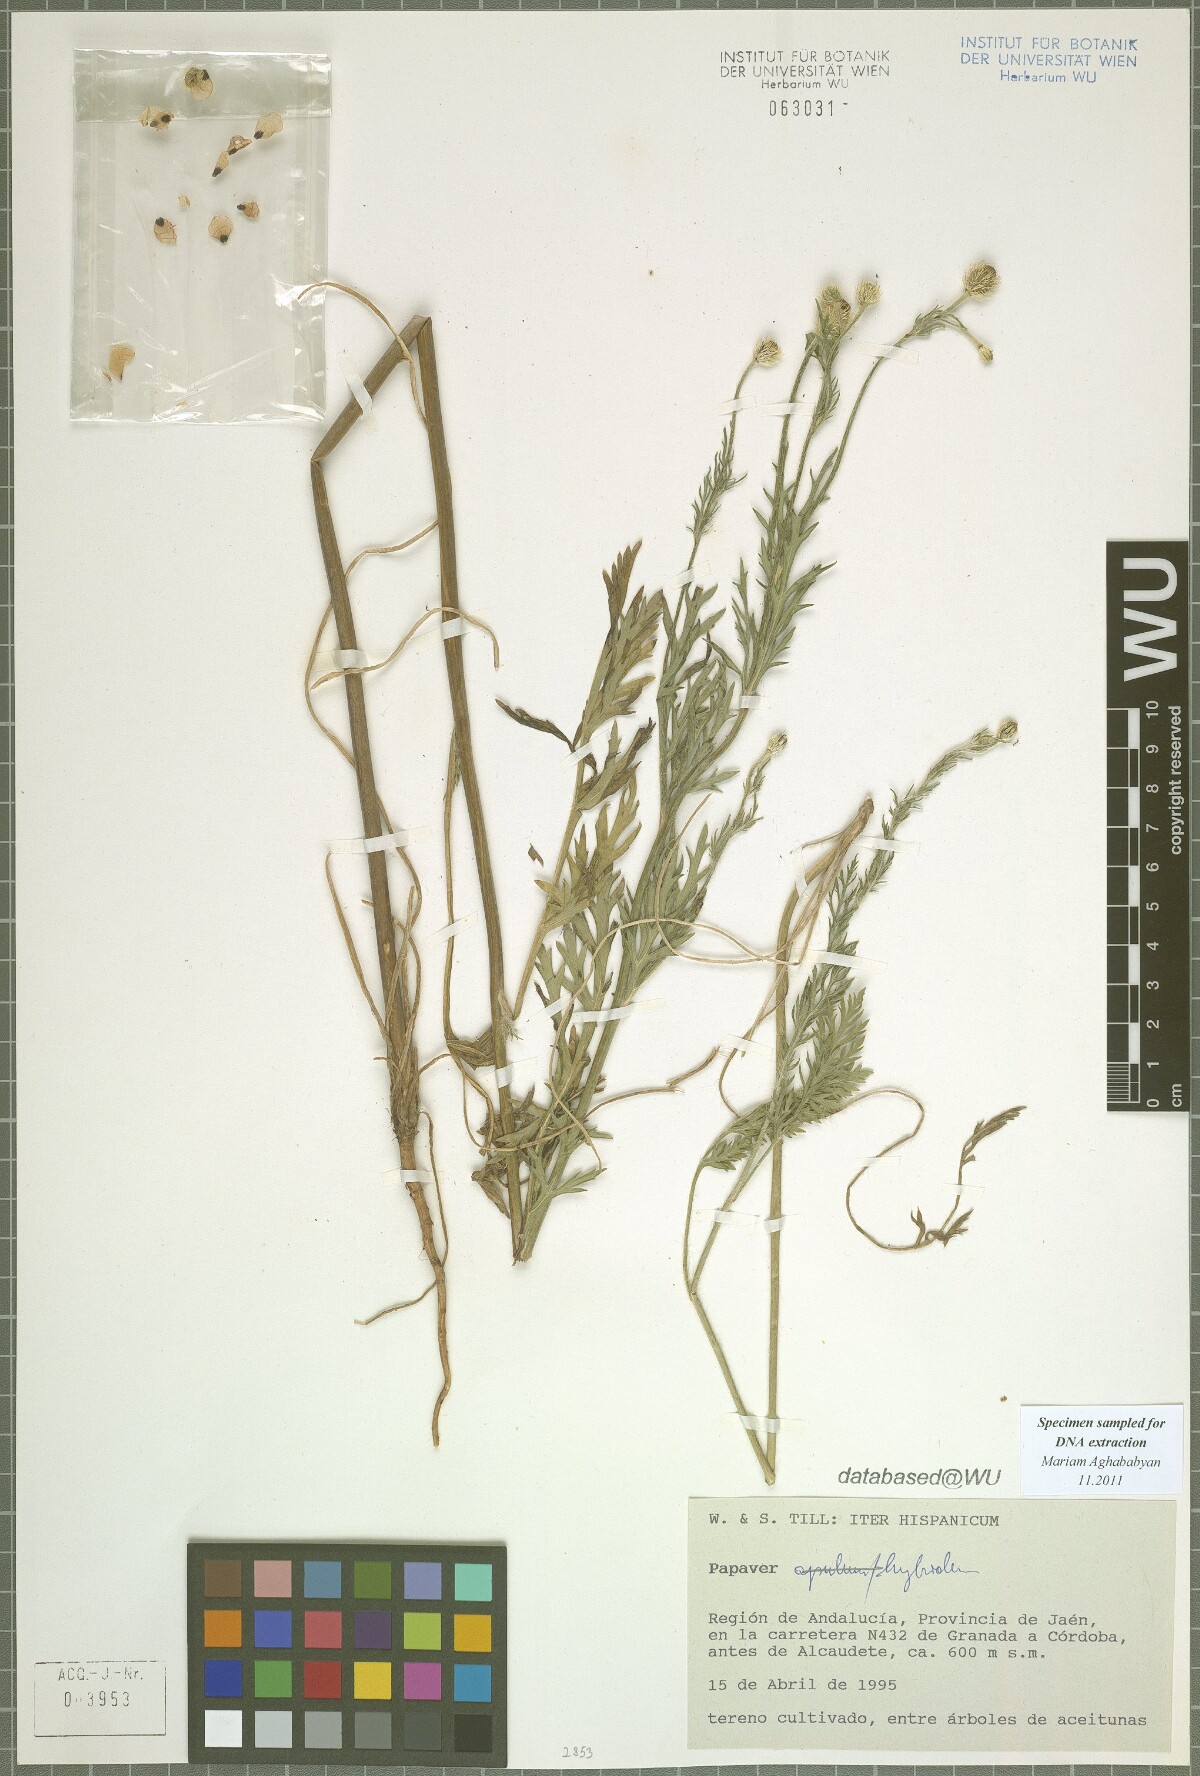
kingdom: Plantae
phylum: Tracheophyta
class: Magnoliopsida
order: Ranunculales
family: Papaveraceae
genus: Roemeria
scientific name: Roemeria hispida
